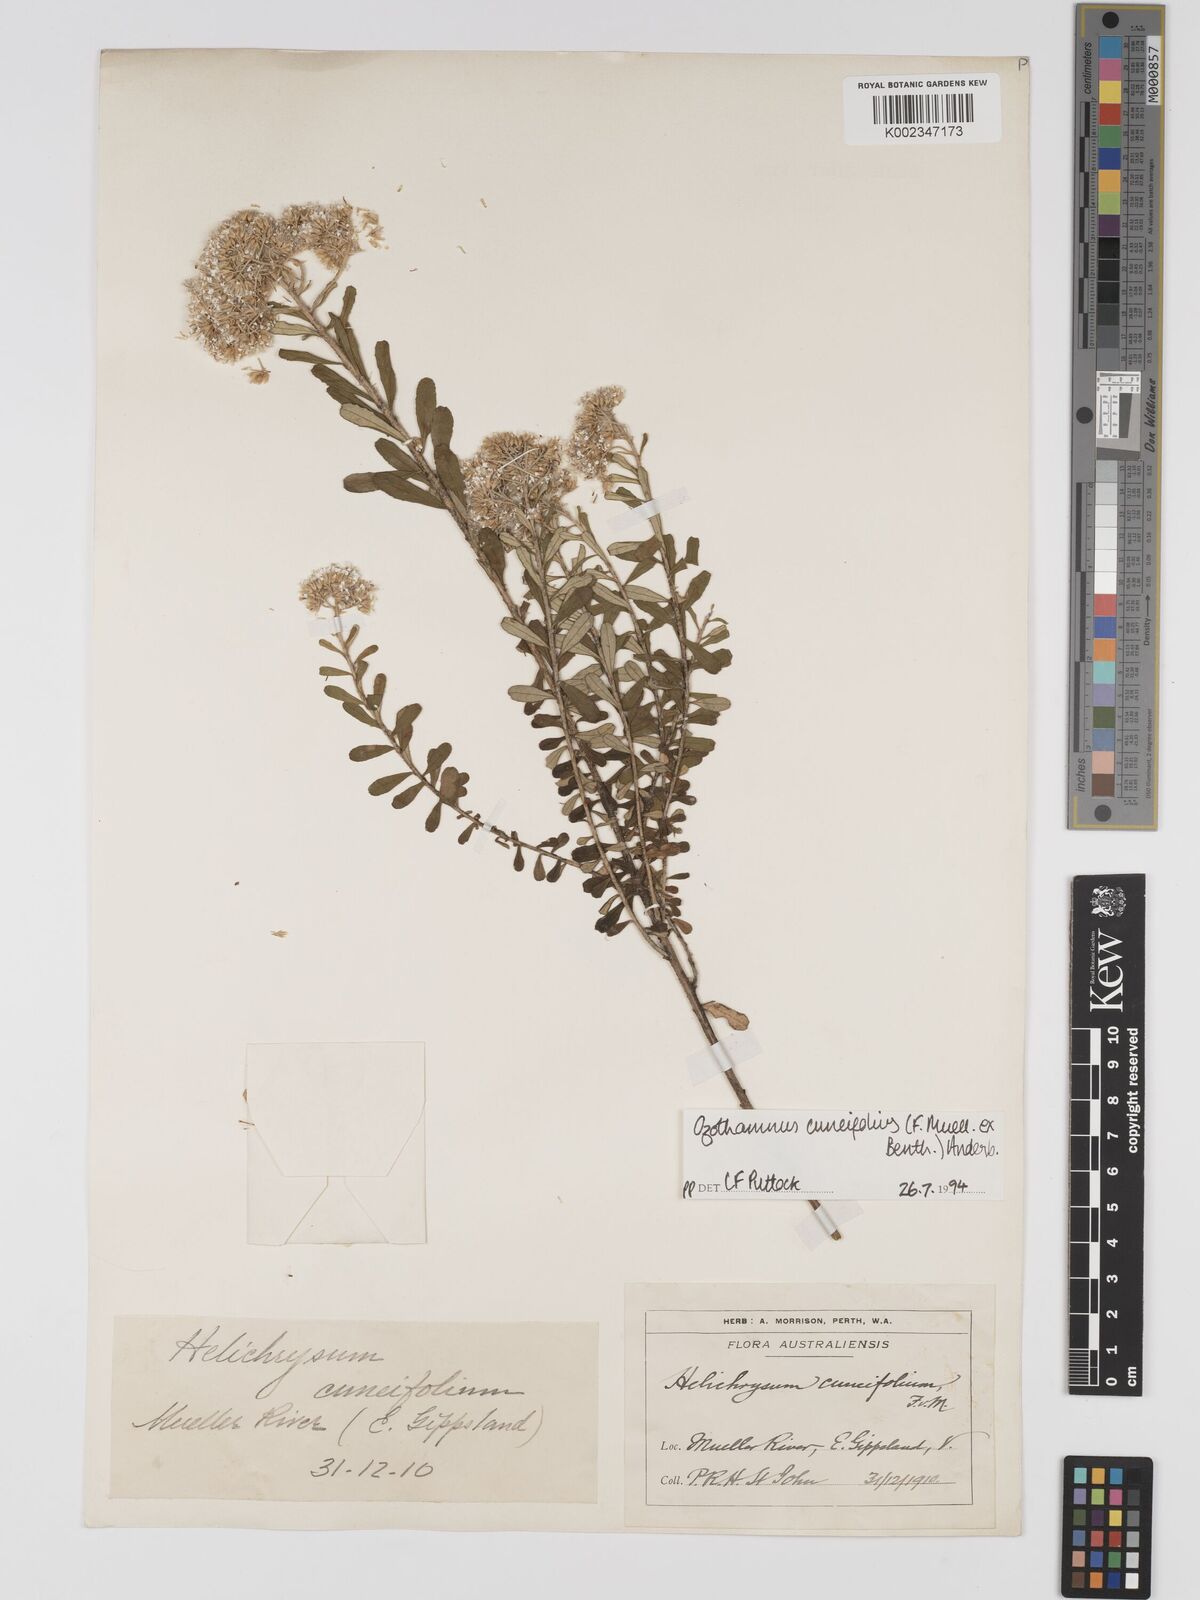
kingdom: Plantae
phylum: Tracheophyta
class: Magnoliopsida
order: Asterales
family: Asteraceae
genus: Ozothamnus
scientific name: Ozothamnus cuneifolius
